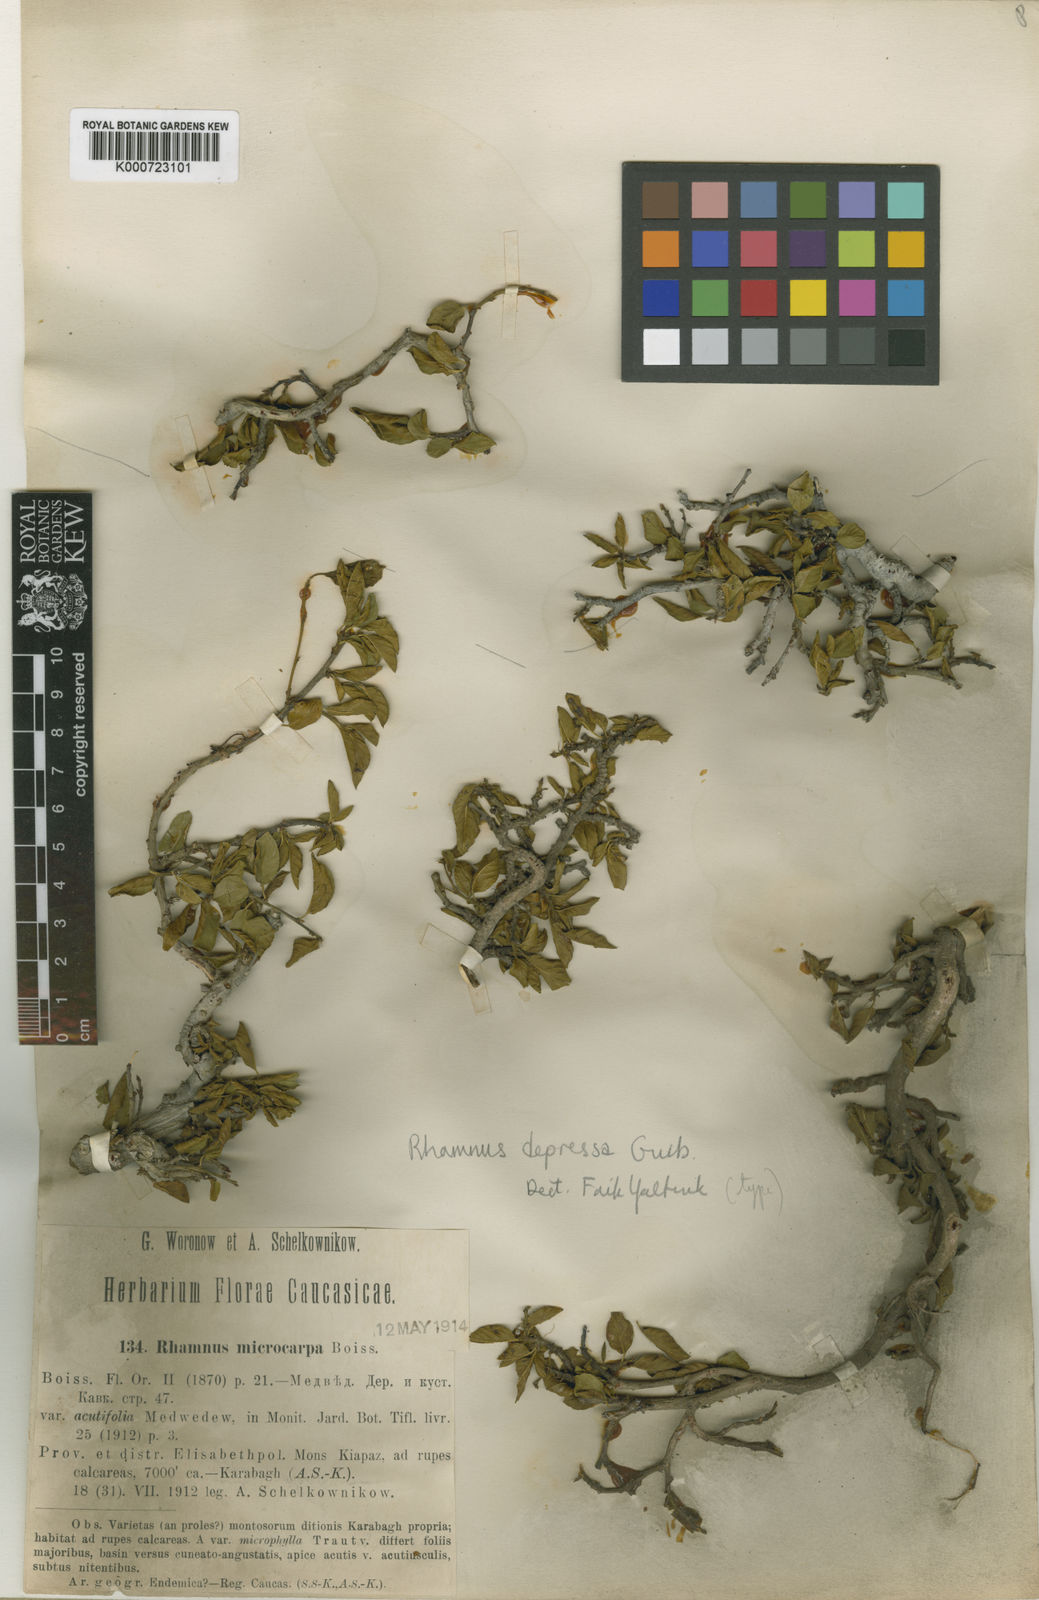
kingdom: Plantae
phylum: Tracheophyta
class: Magnoliopsida
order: Rosales
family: Rhamnaceae
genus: Atadinus
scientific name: Atadinus depressus
